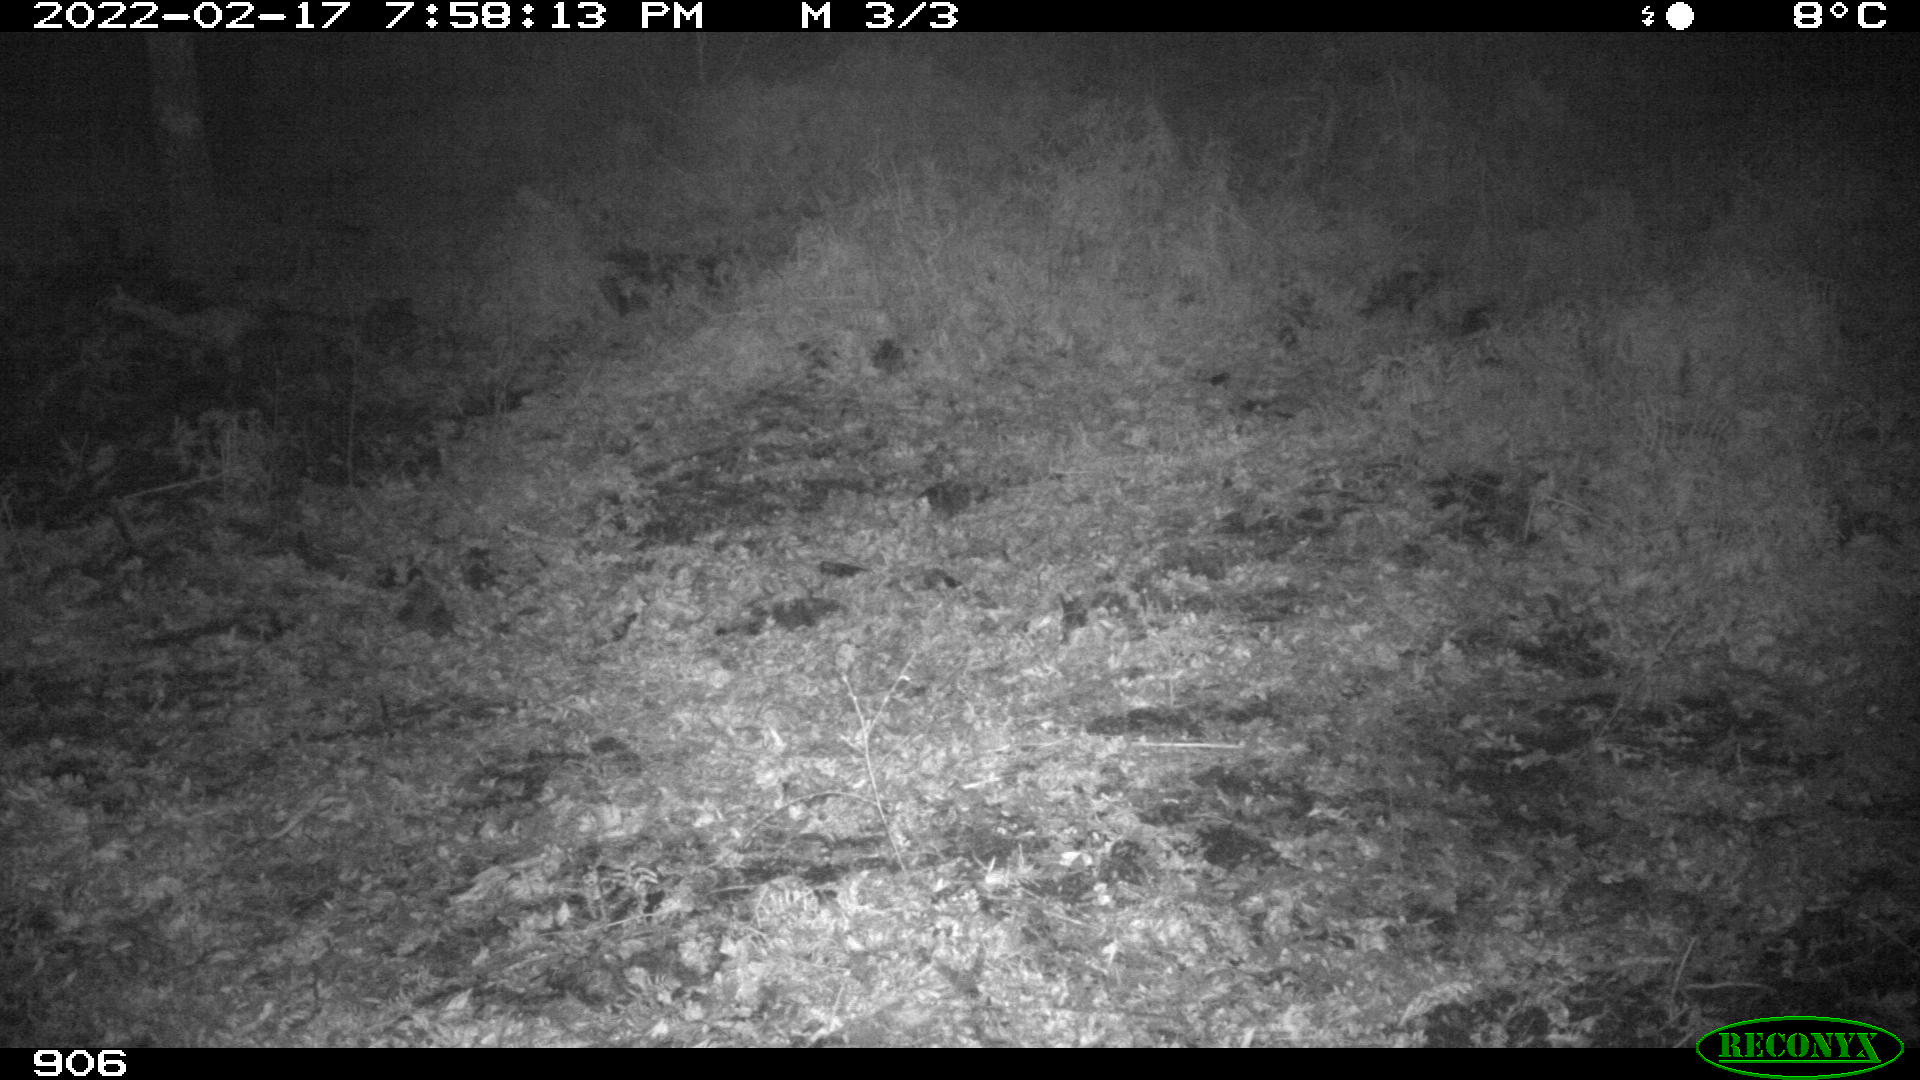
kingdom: Animalia
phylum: Chordata
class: Mammalia
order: Artiodactyla
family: Suidae
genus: Sus
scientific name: Sus scrofa
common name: Wild boar
